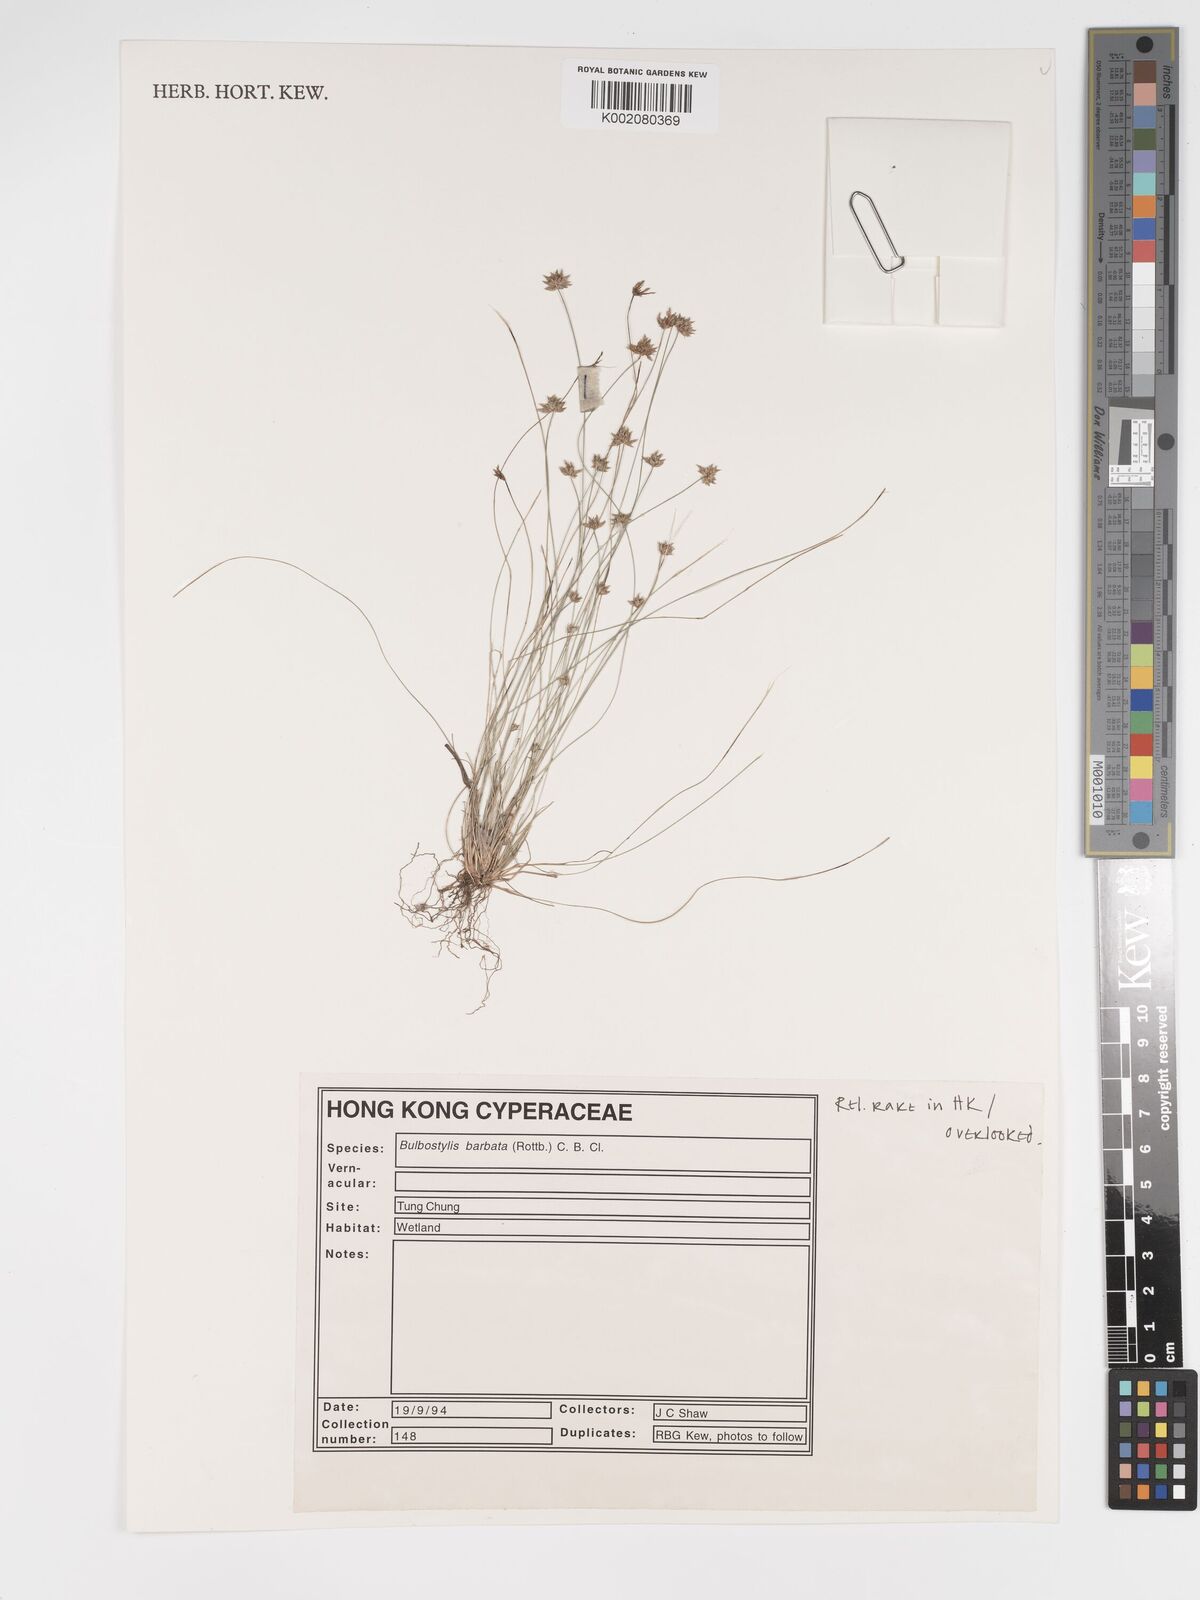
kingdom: Plantae
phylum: Tracheophyta
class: Liliopsida
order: Poales
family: Cyperaceae
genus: Bulbostylis
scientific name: Bulbostylis barbata
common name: Watergrass
